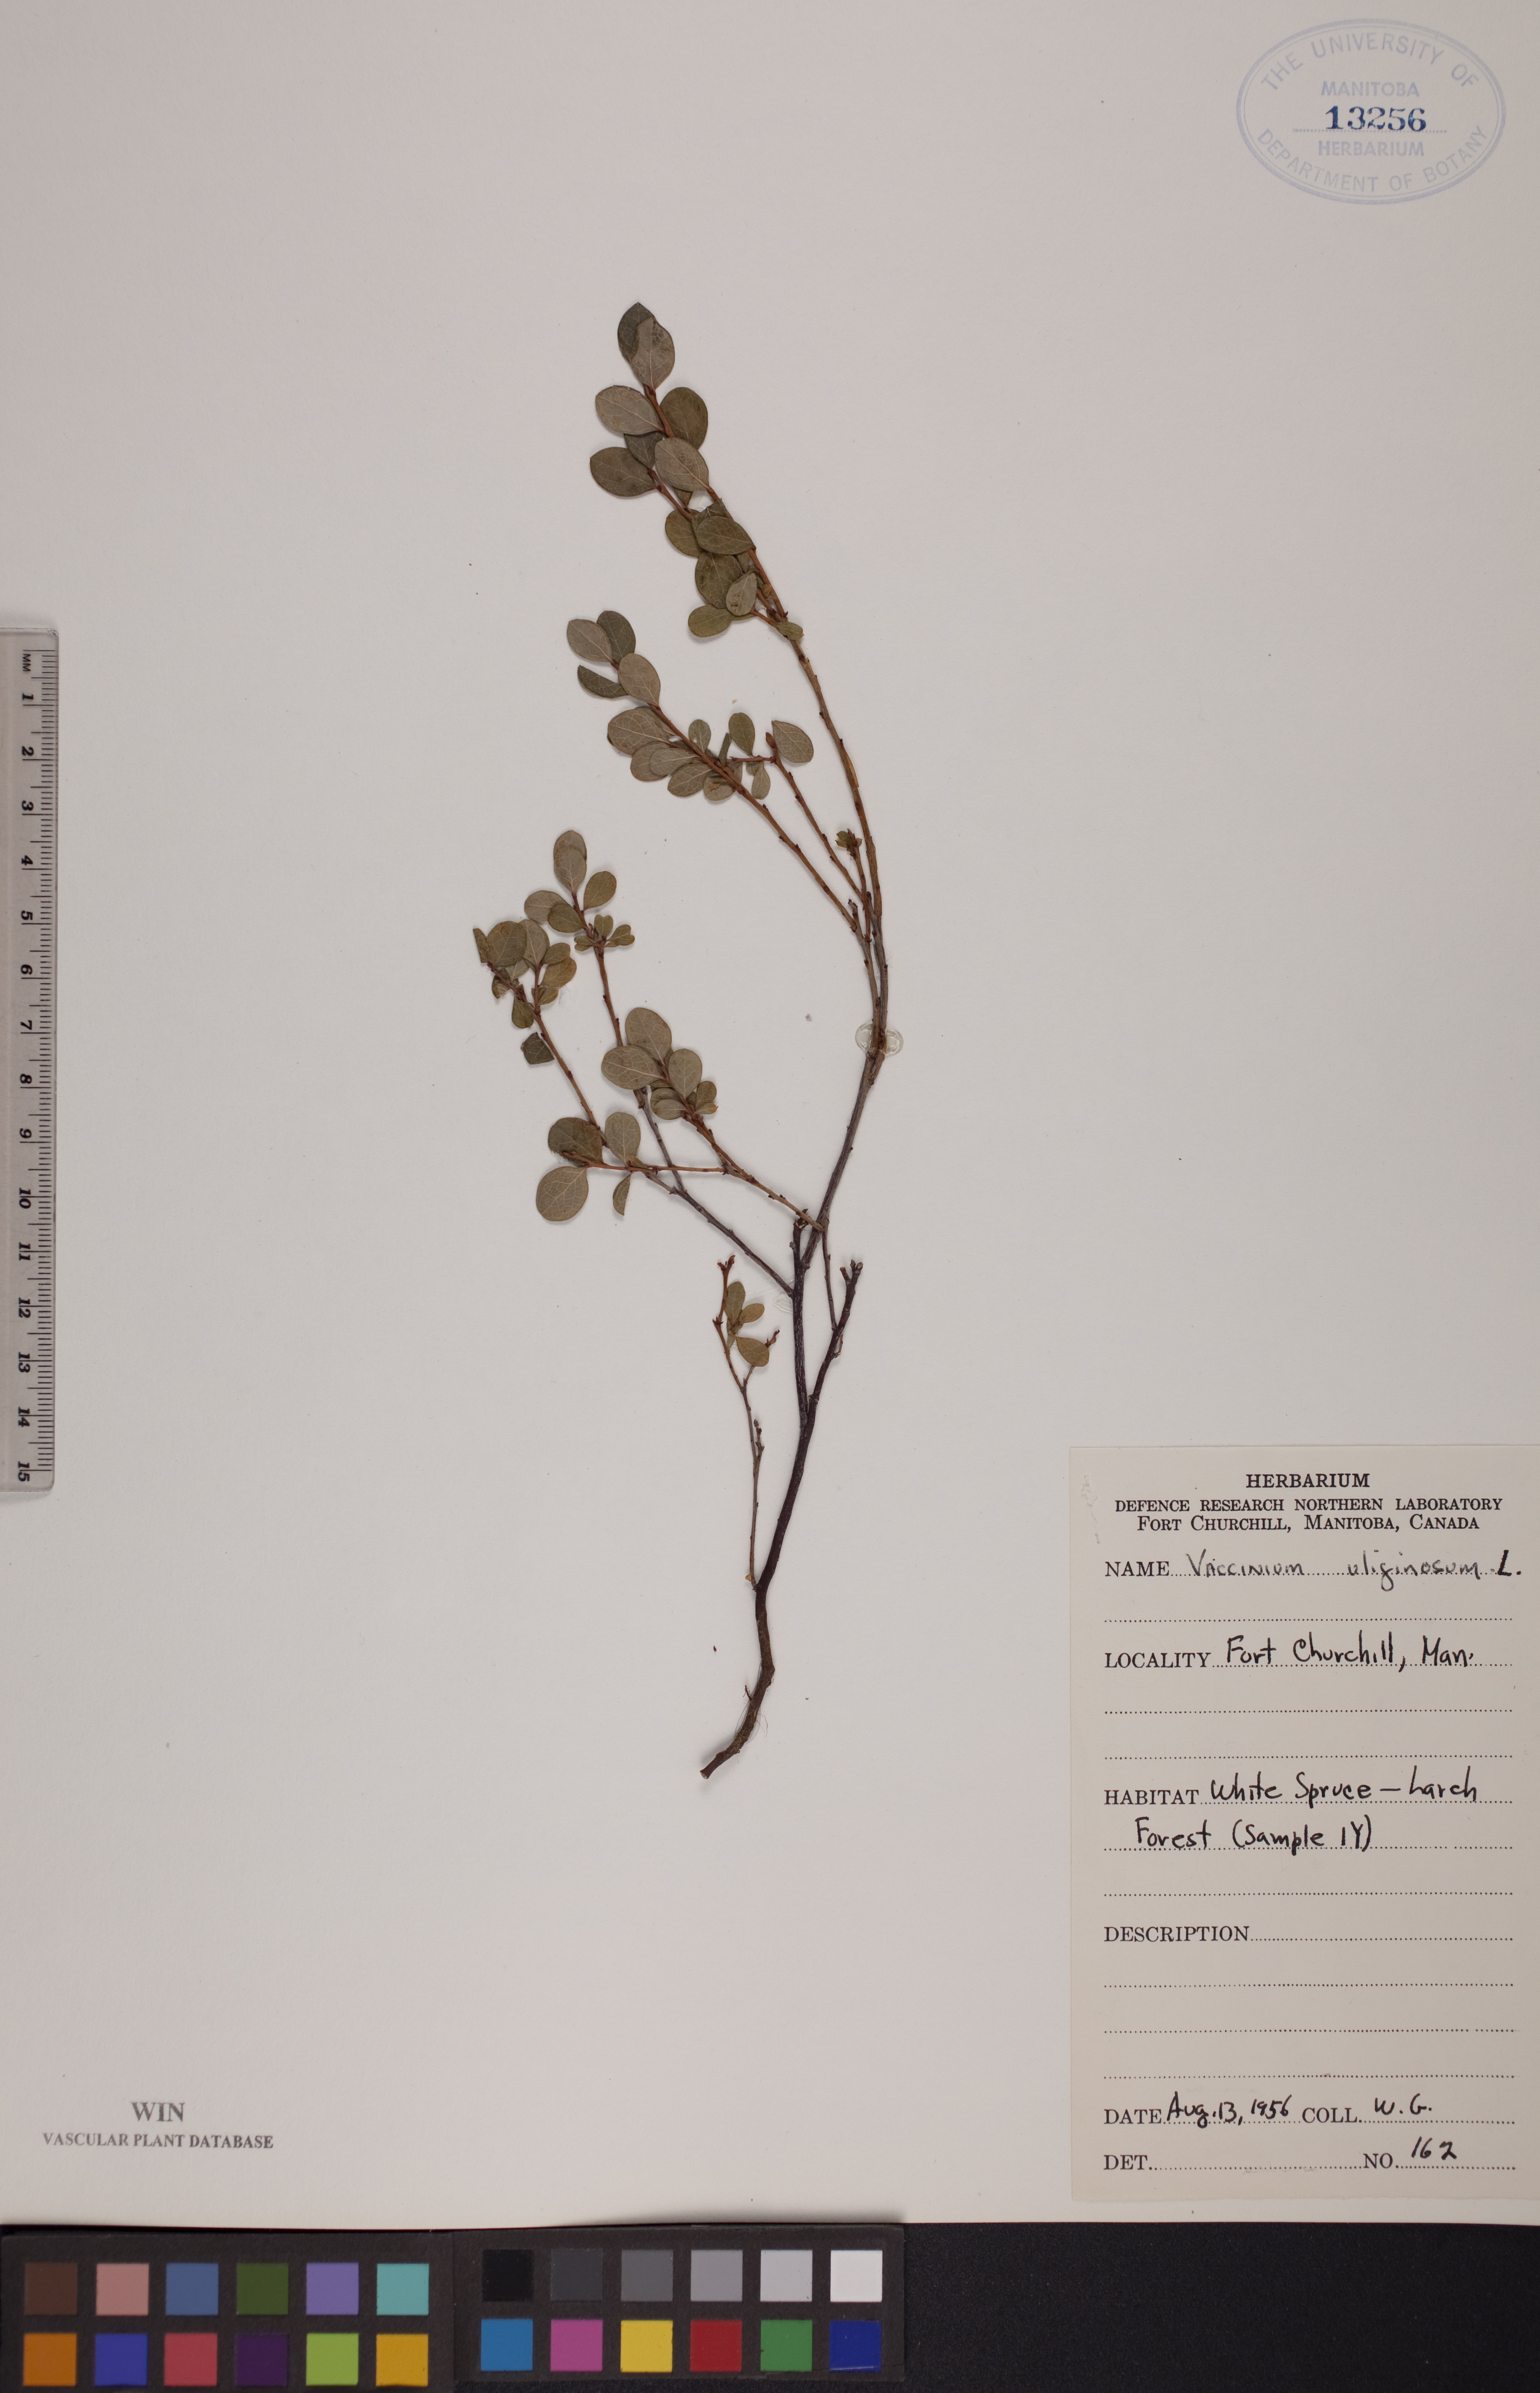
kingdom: Plantae
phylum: Tracheophyta
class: Magnoliopsida
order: Ericales
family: Ericaceae
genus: Vaccinium
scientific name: Vaccinium uliginosum
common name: Bog bilberry
